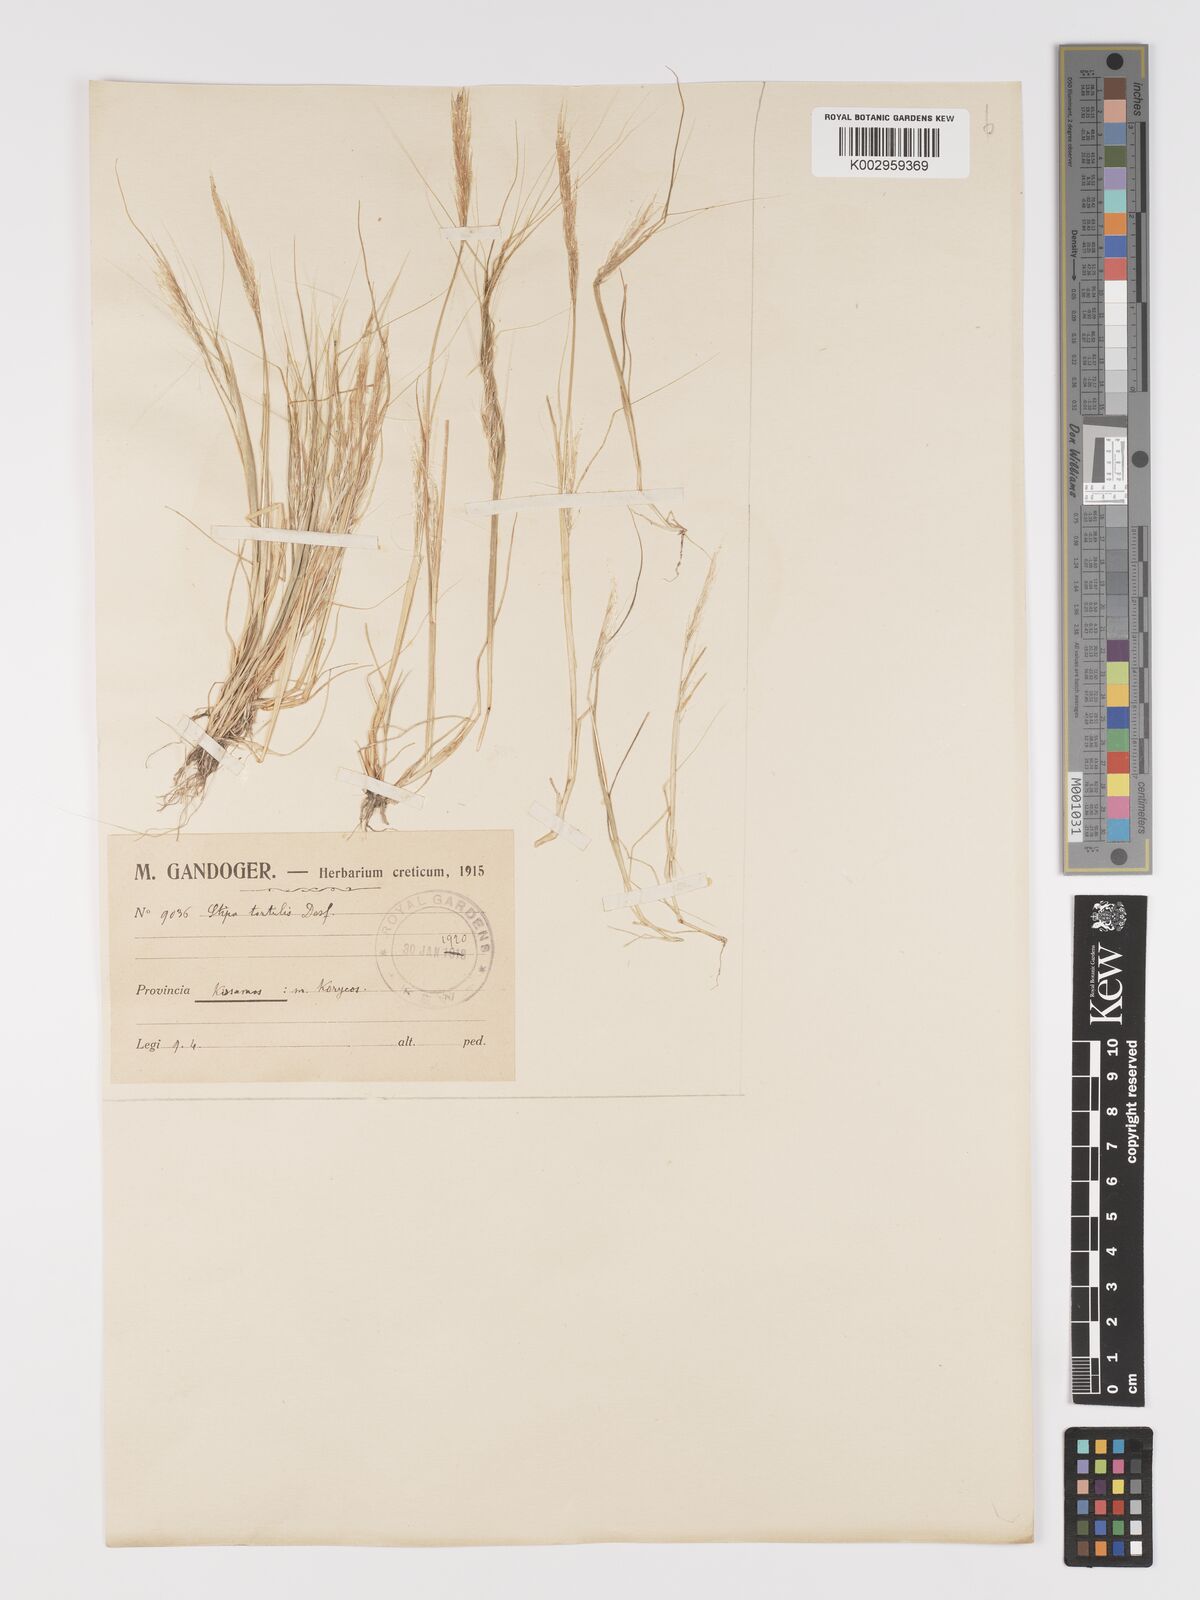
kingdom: Plantae
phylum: Tracheophyta
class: Liliopsida
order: Poales
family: Poaceae
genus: Stipellula
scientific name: Stipellula capensis
